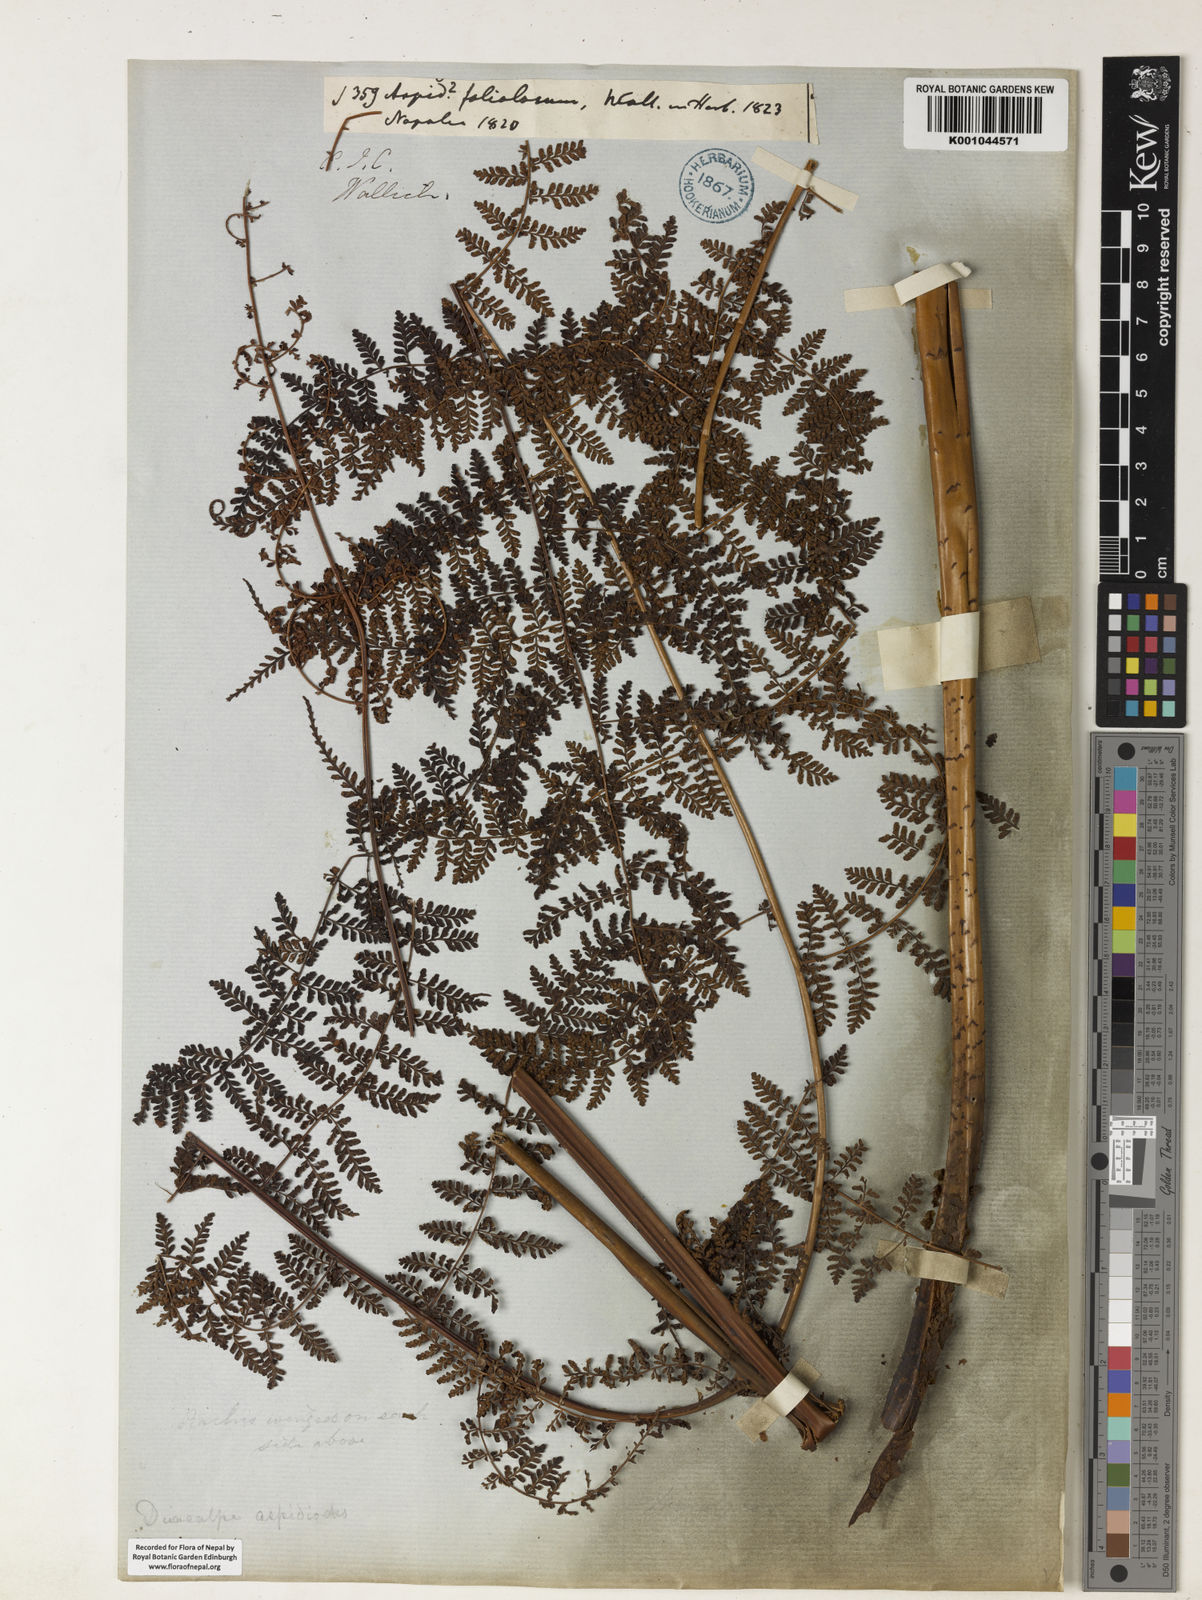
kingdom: Plantae
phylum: Tracheophyta
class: Polypodiopsida
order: Polypodiales
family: Dryopteridaceae
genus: Dryopteris
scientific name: Dryopteris nodosa
